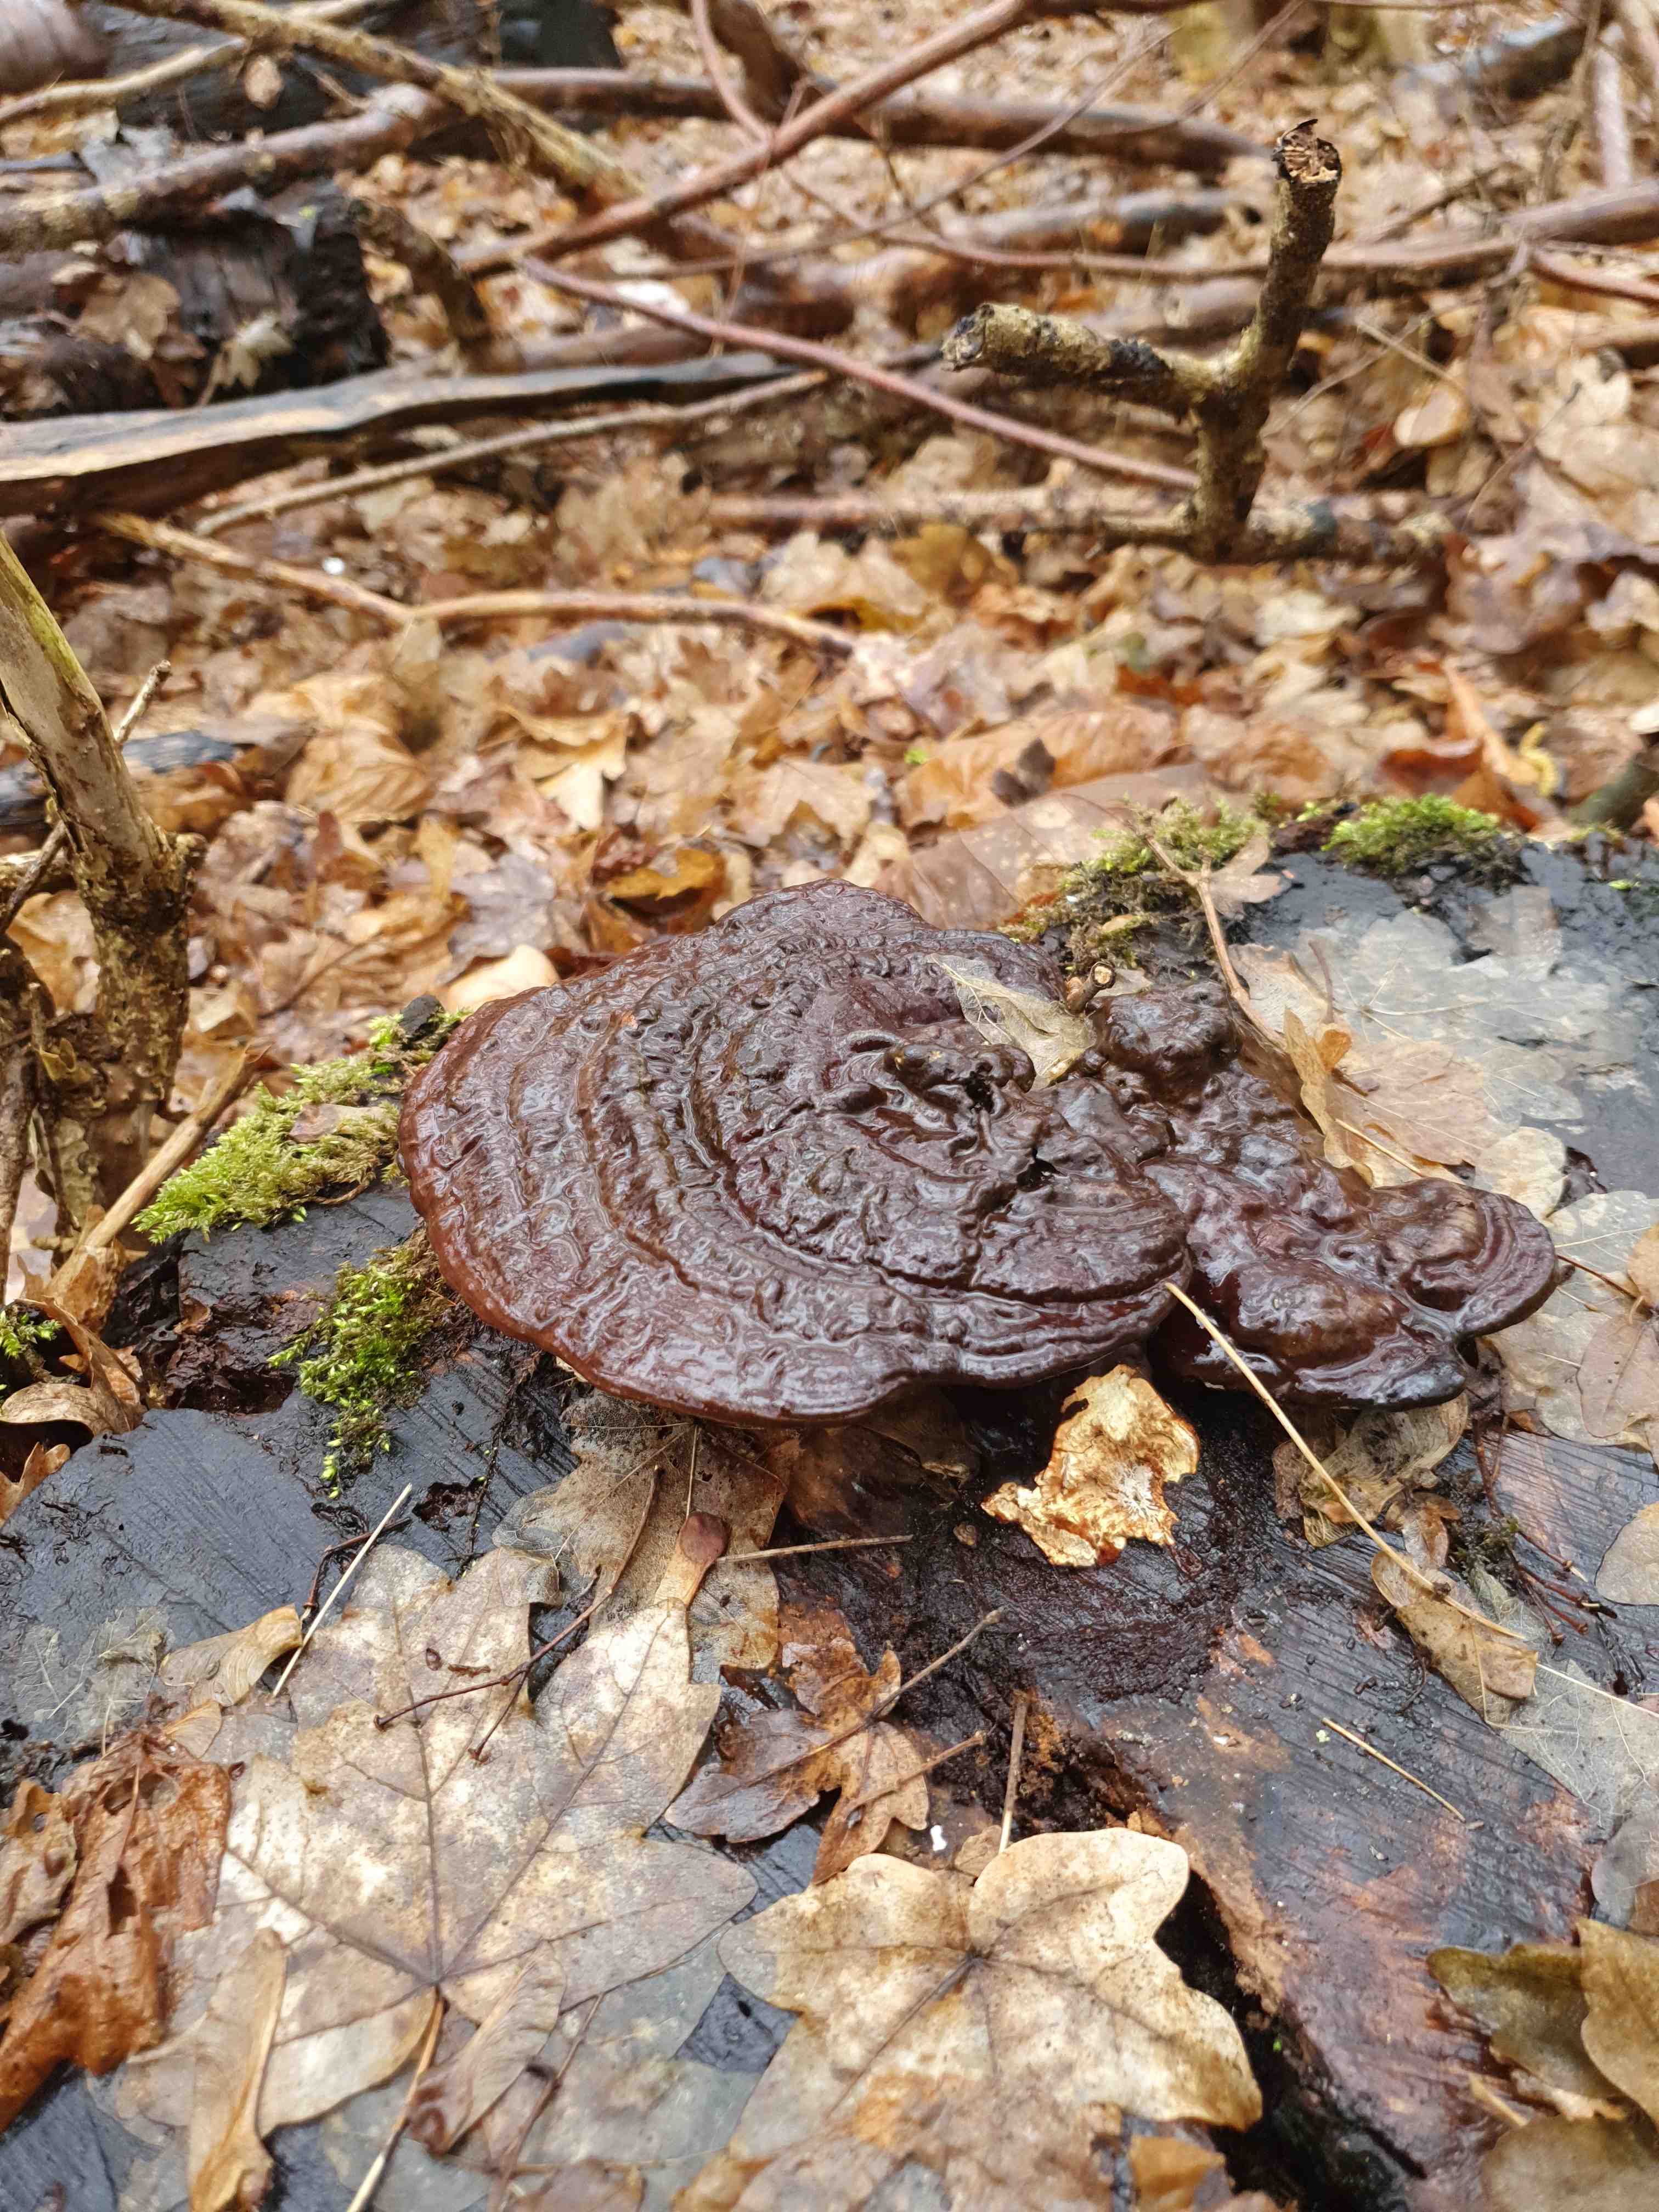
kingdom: Fungi
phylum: Basidiomycota
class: Agaricomycetes
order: Polyporales
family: Polyporaceae
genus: Ganoderma
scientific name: Ganoderma applanatum
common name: flad lakporesvamp
